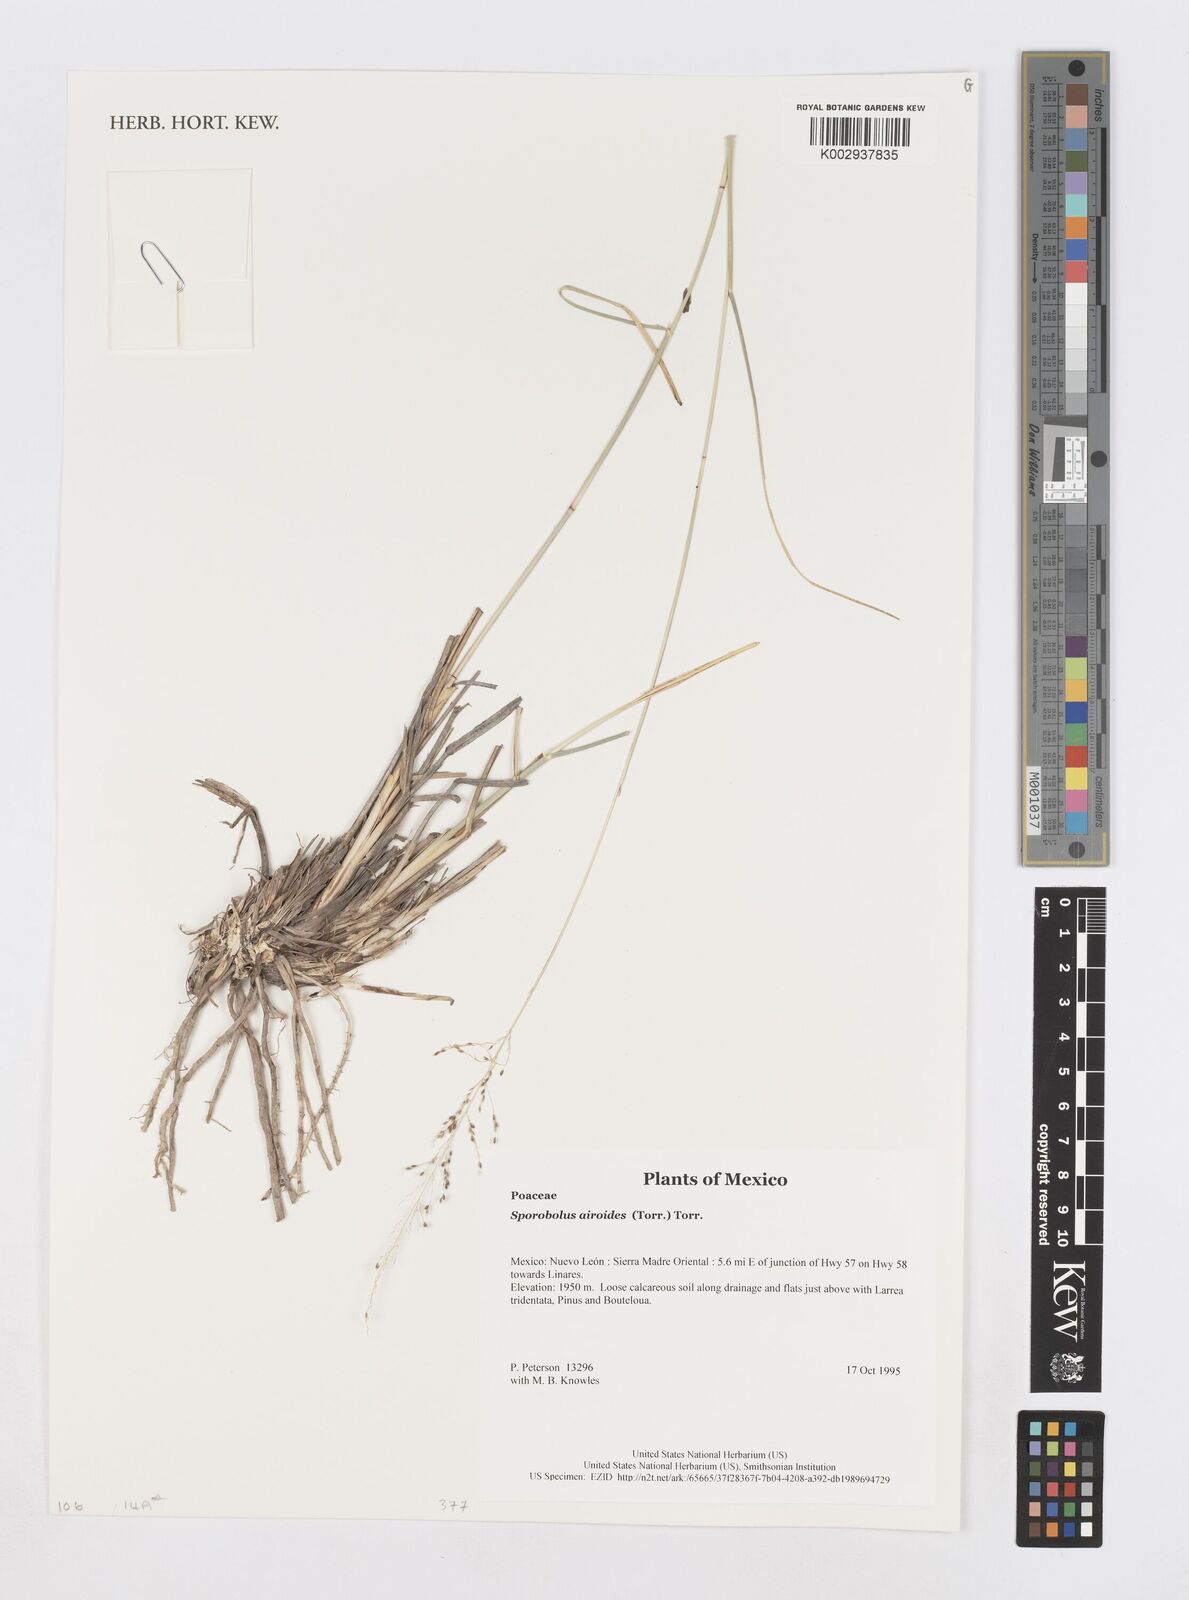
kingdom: Plantae
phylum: Tracheophyta
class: Liliopsida
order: Poales
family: Poaceae
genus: Sporobolus
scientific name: Sporobolus airoides
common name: Alkali sacaton
